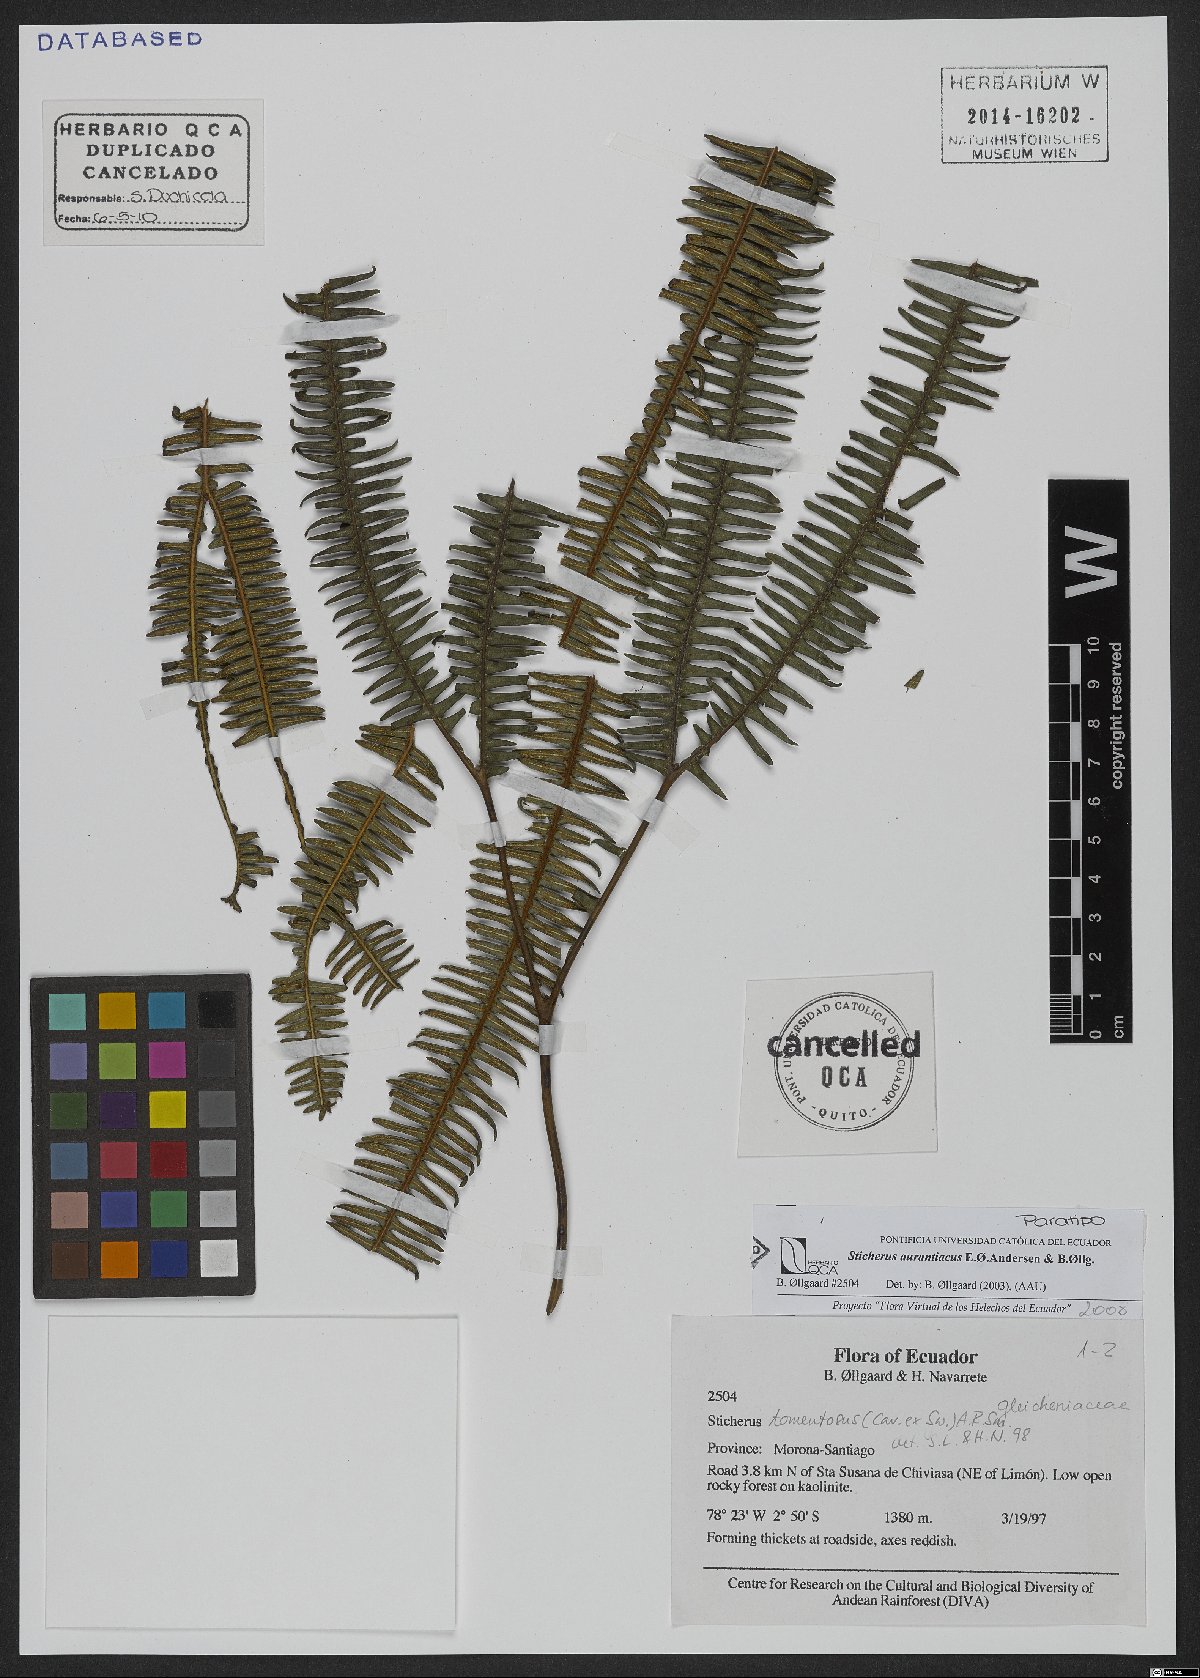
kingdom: Plantae
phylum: Tracheophyta
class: Polypodiopsida
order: Gleicheniales
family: Gleicheniaceae
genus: Sticherus
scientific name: Sticherus aurantiacus
